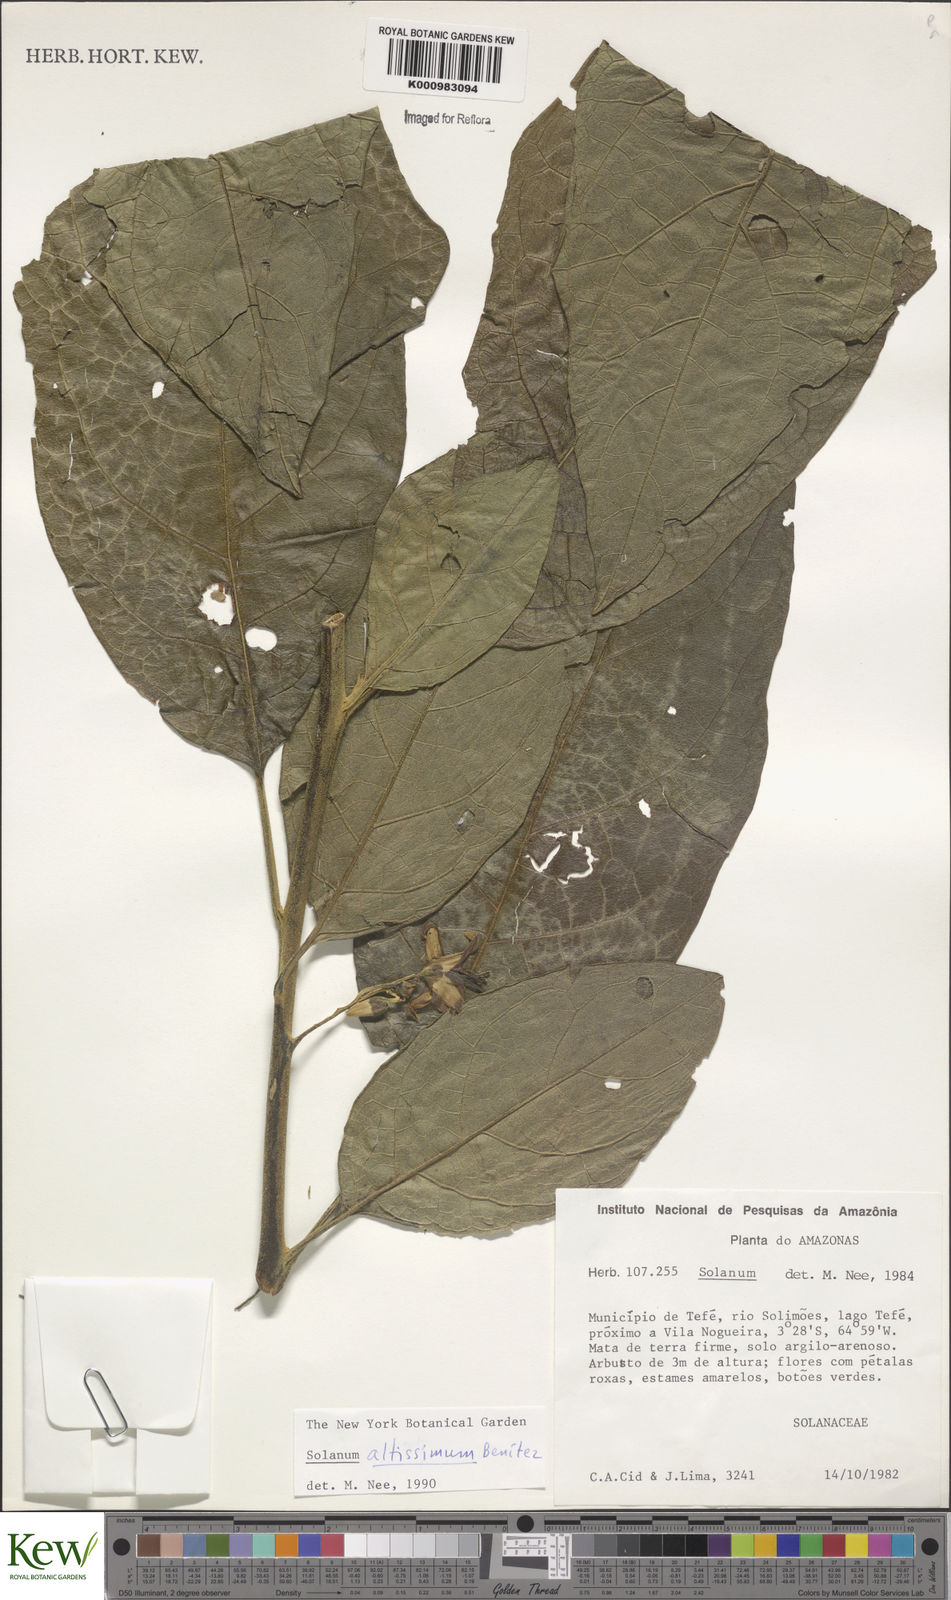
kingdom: Plantae
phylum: Tracheophyta
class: Magnoliopsida
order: Solanales
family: Solanaceae
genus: Solanum
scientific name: Solanum kioniotrichum
